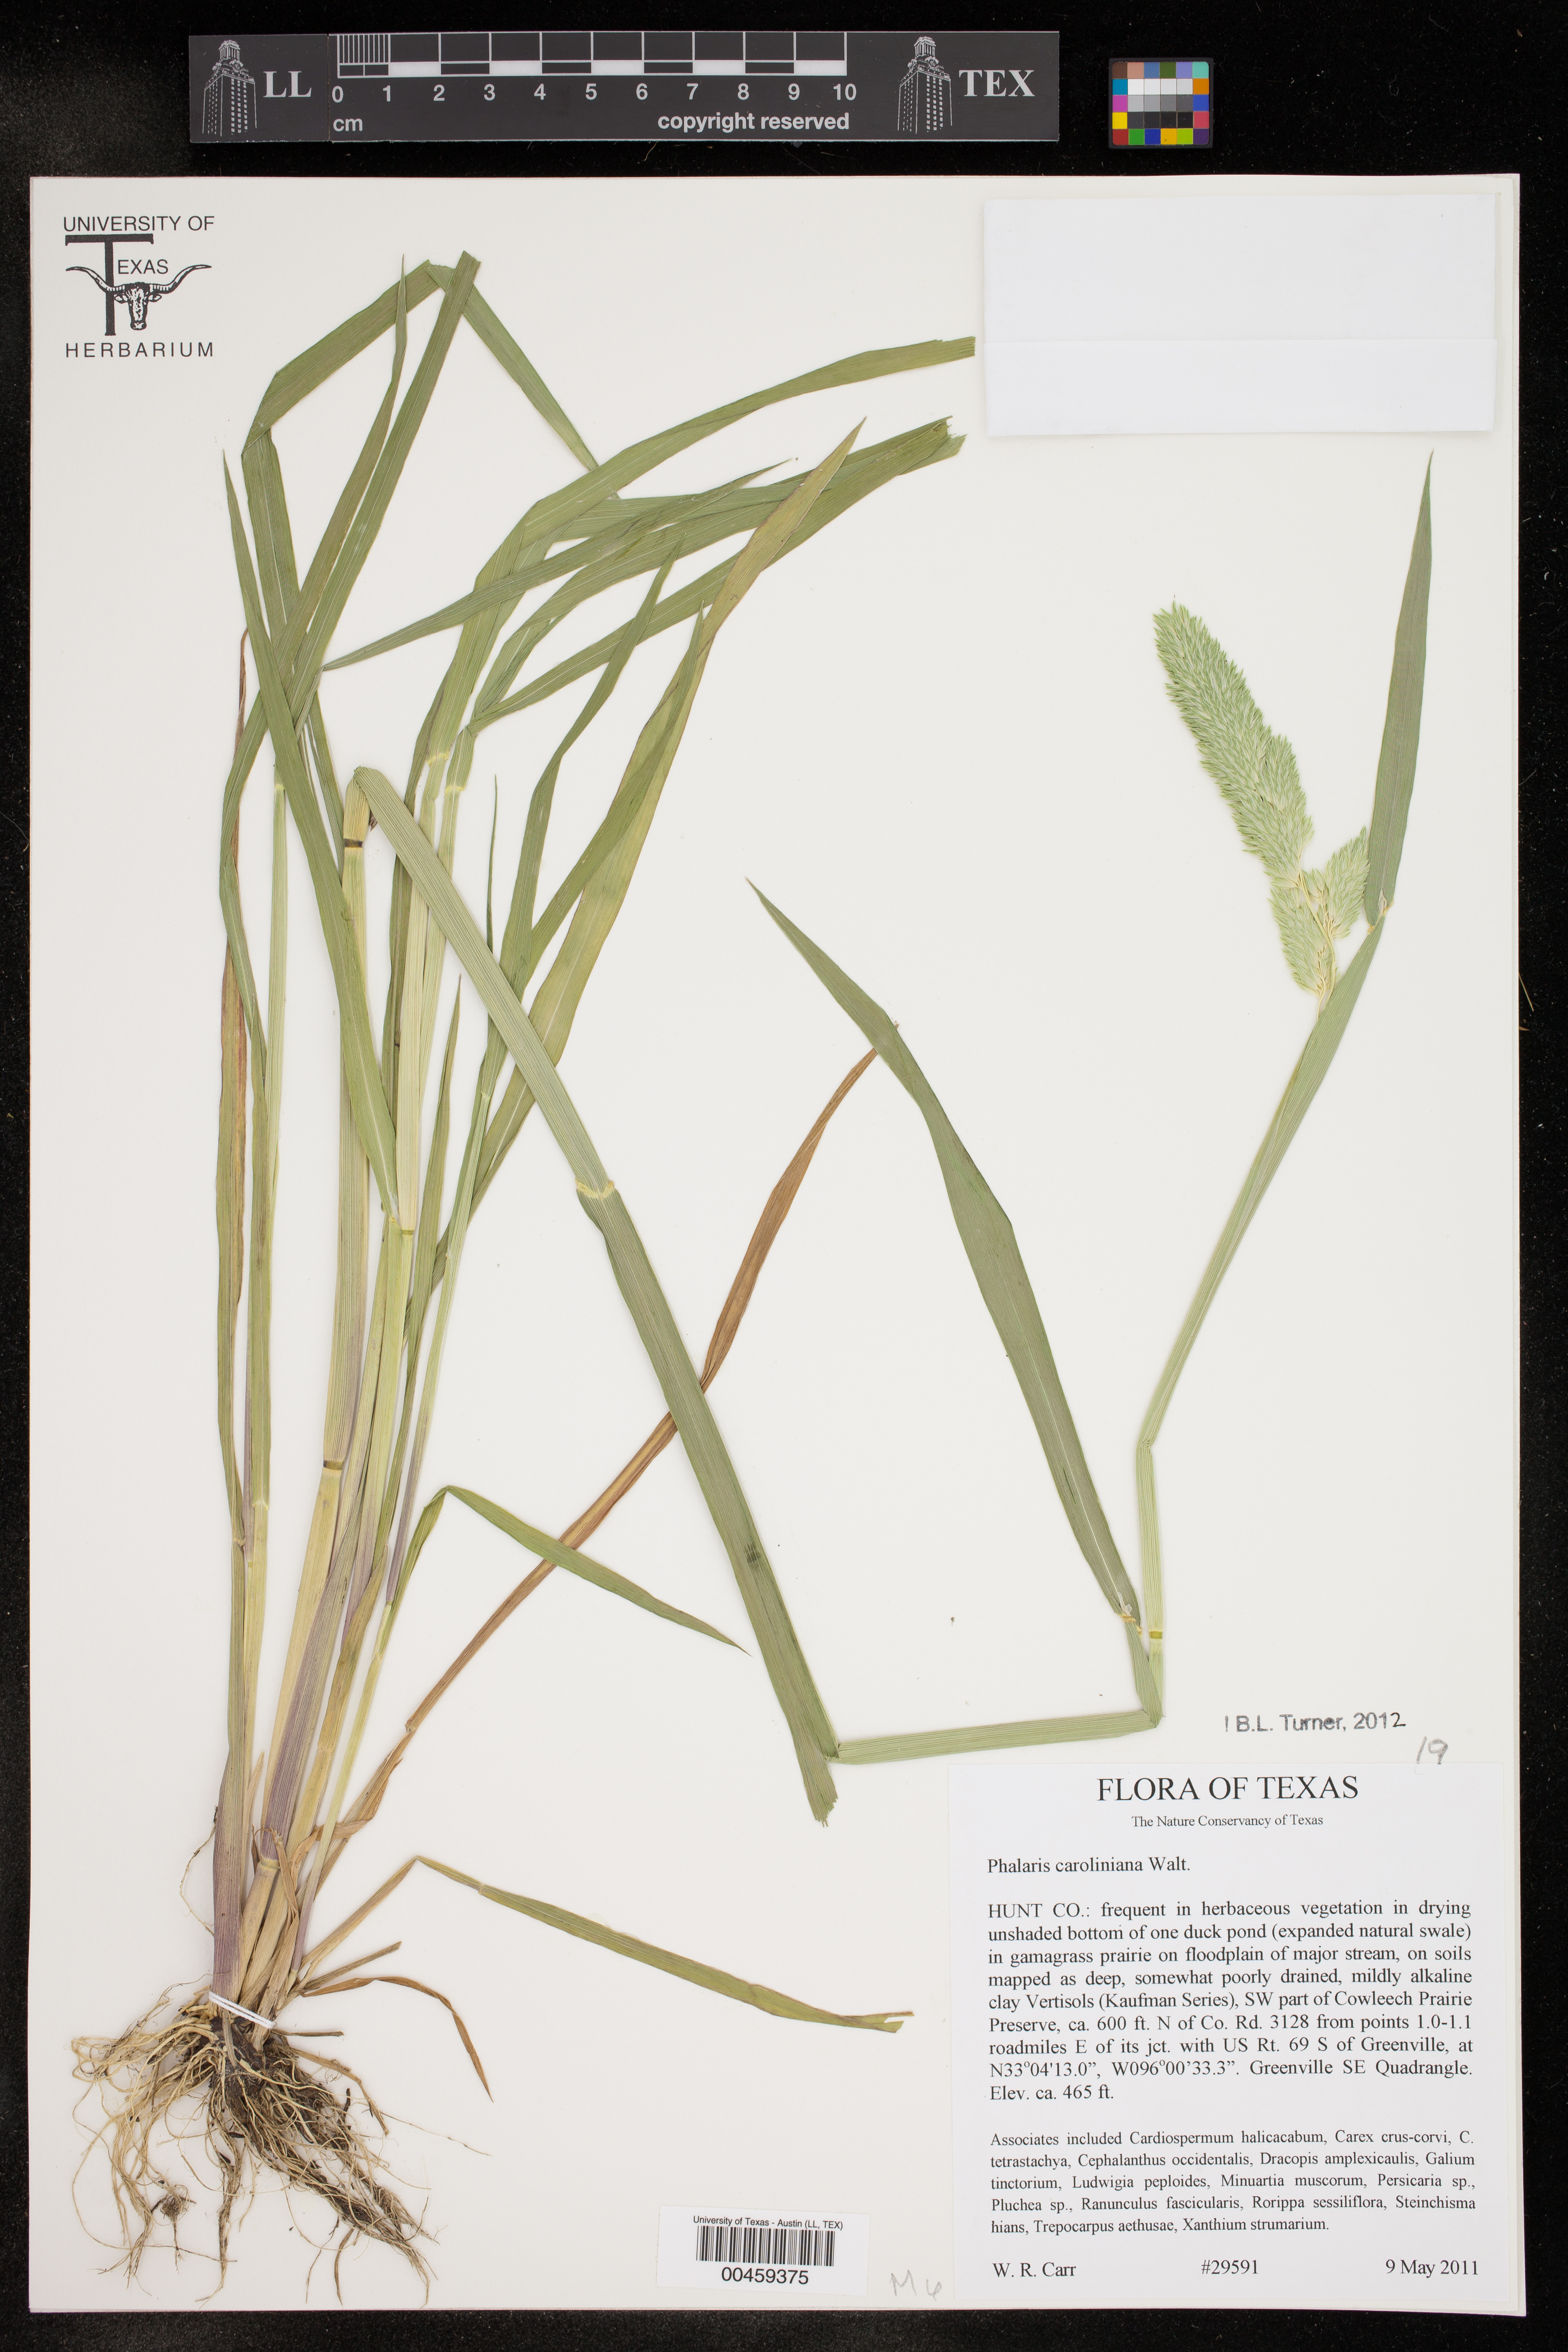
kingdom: Plantae
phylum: Tracheophyta
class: Liliopsida
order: Poales
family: Poaceae
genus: Phalaris
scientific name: Phalaris caroliniana
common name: May grass
